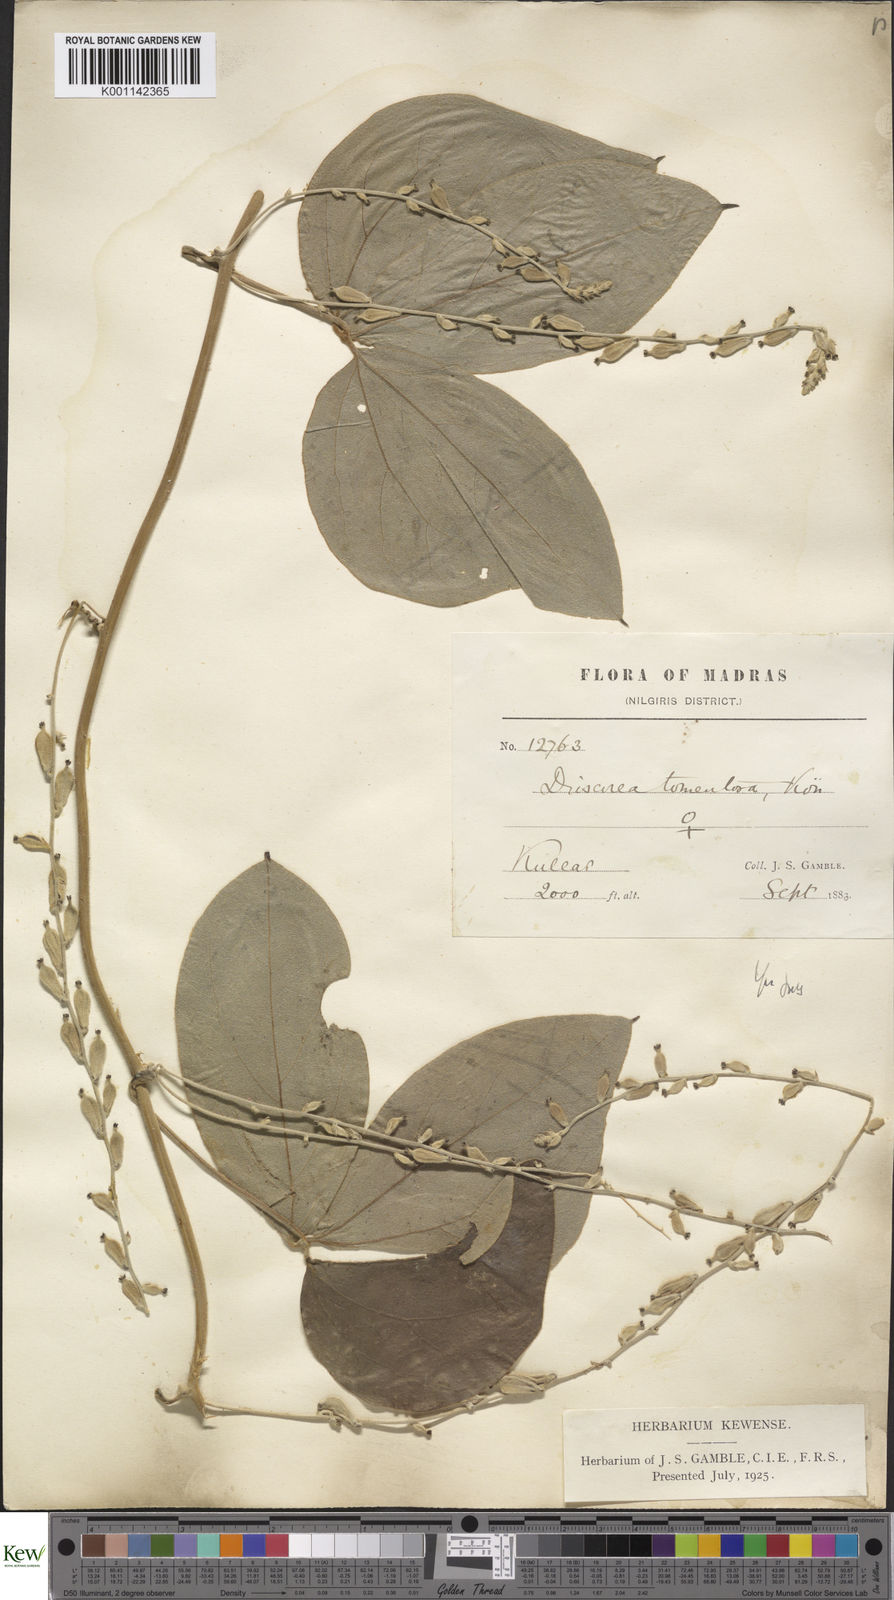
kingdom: Plantae
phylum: Tracheophyta
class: Liliopsida
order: Dioscoreales
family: Dioscoreaceae
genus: Dioscorea
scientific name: Dioscorea
